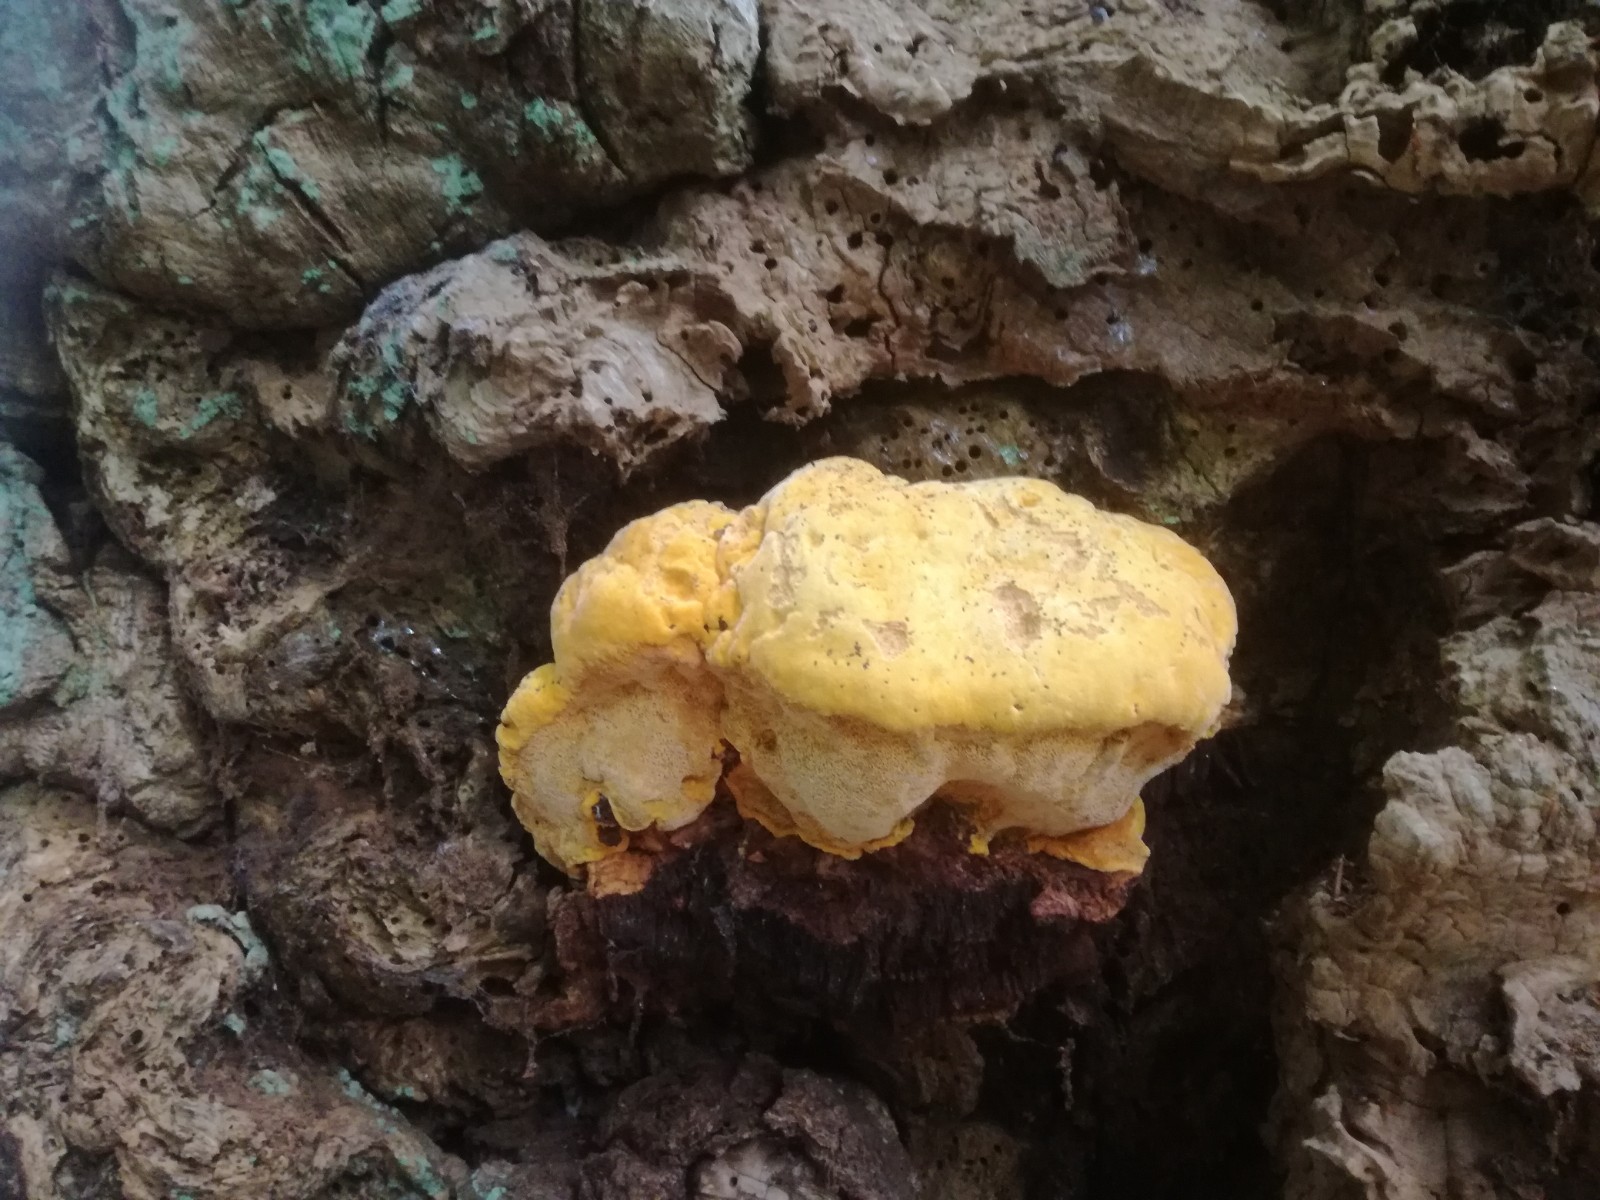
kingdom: Fungi
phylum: Basidiomycota
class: Agaricomycetes
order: Polyporales
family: Phanerochaetaceae
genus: Hapalopilus
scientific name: Hapalopilus croceus
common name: safrangul pragtporesvamp
